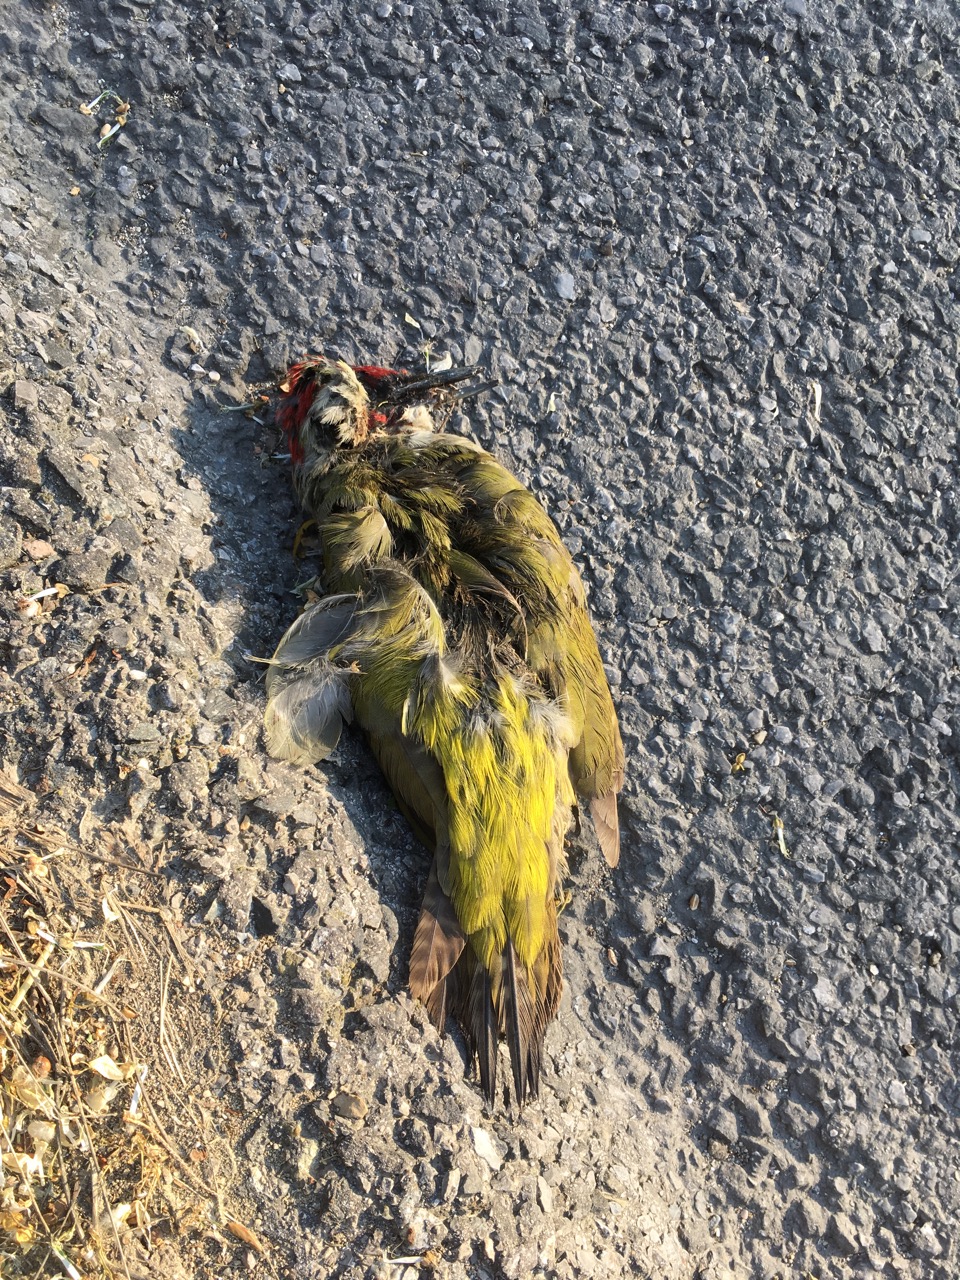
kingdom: Animalia
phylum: Chordata
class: Aves
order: Piciformes
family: Picidae
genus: Picus
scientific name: Picus viridis
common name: European green woodpecker
